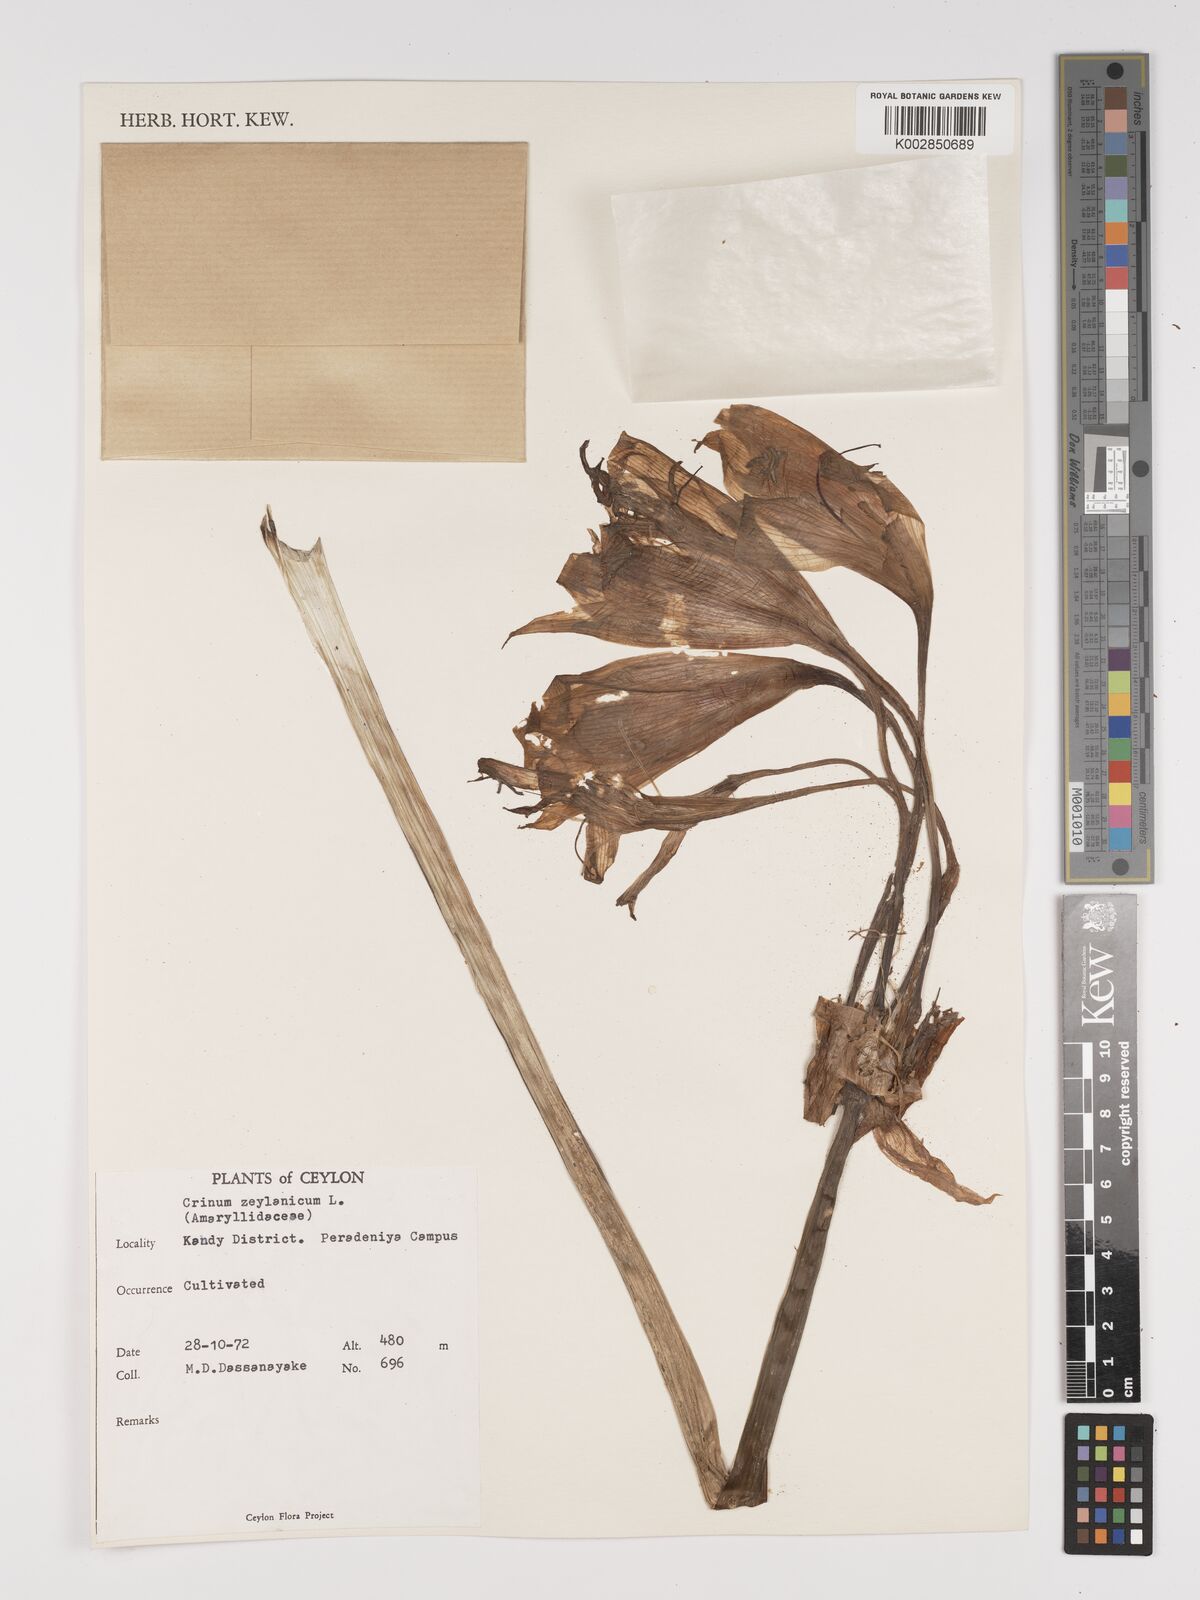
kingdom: Plantae
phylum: Tracheophyta
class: Liliopsida
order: Asparagales
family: Amaryllidaceae
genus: Crinum
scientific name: Crinum zeylanicum
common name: Ceylon swamplily
